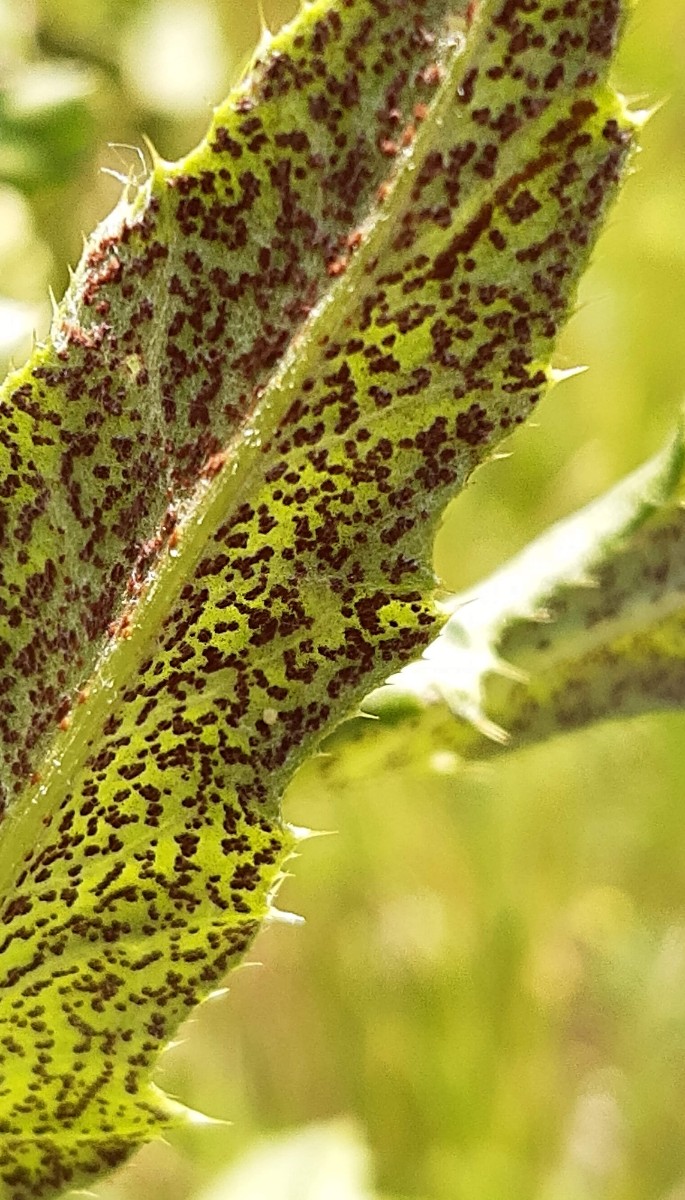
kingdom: Fungi
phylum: Basidiomycota
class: Pucciniomycetes
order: Pucciniales
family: Pucciniaceae
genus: Puccinia
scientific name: Puccinia suaveolens
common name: tidsel-tvecellerust
